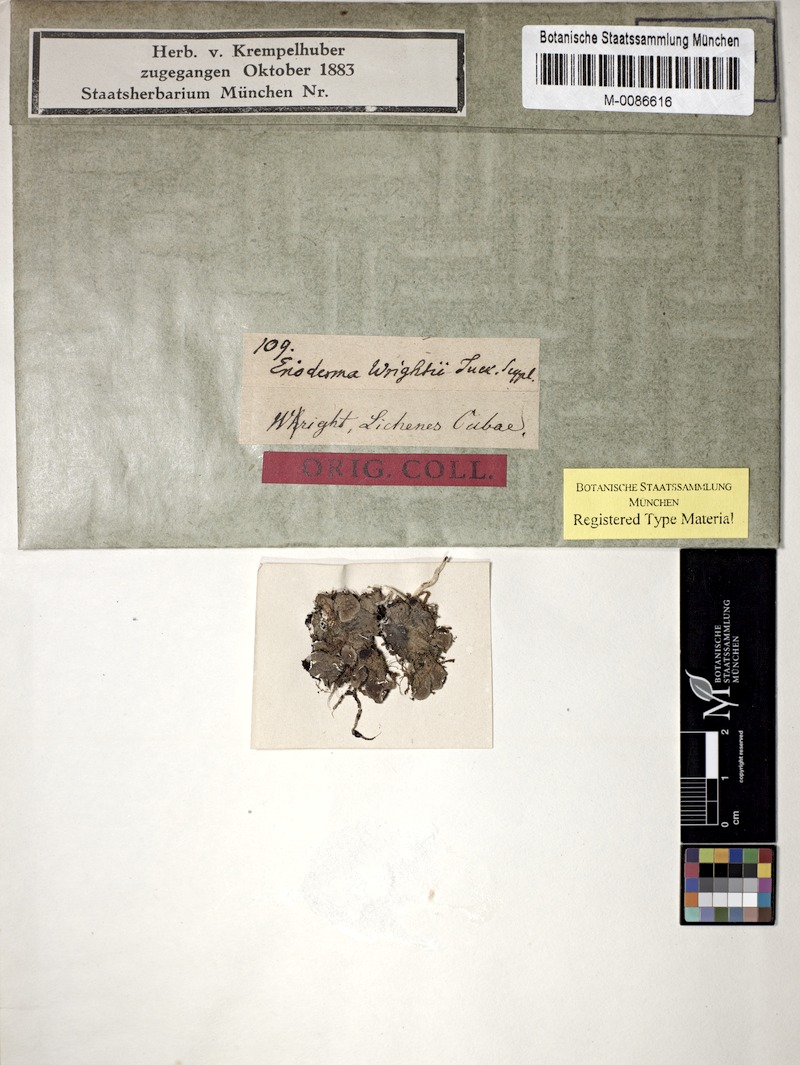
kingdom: Fungi
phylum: Ascomycota
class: Lecanoromycetes
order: Peltigerales
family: Pannariaceae
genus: Erioderma
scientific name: Erioderma wrightii
